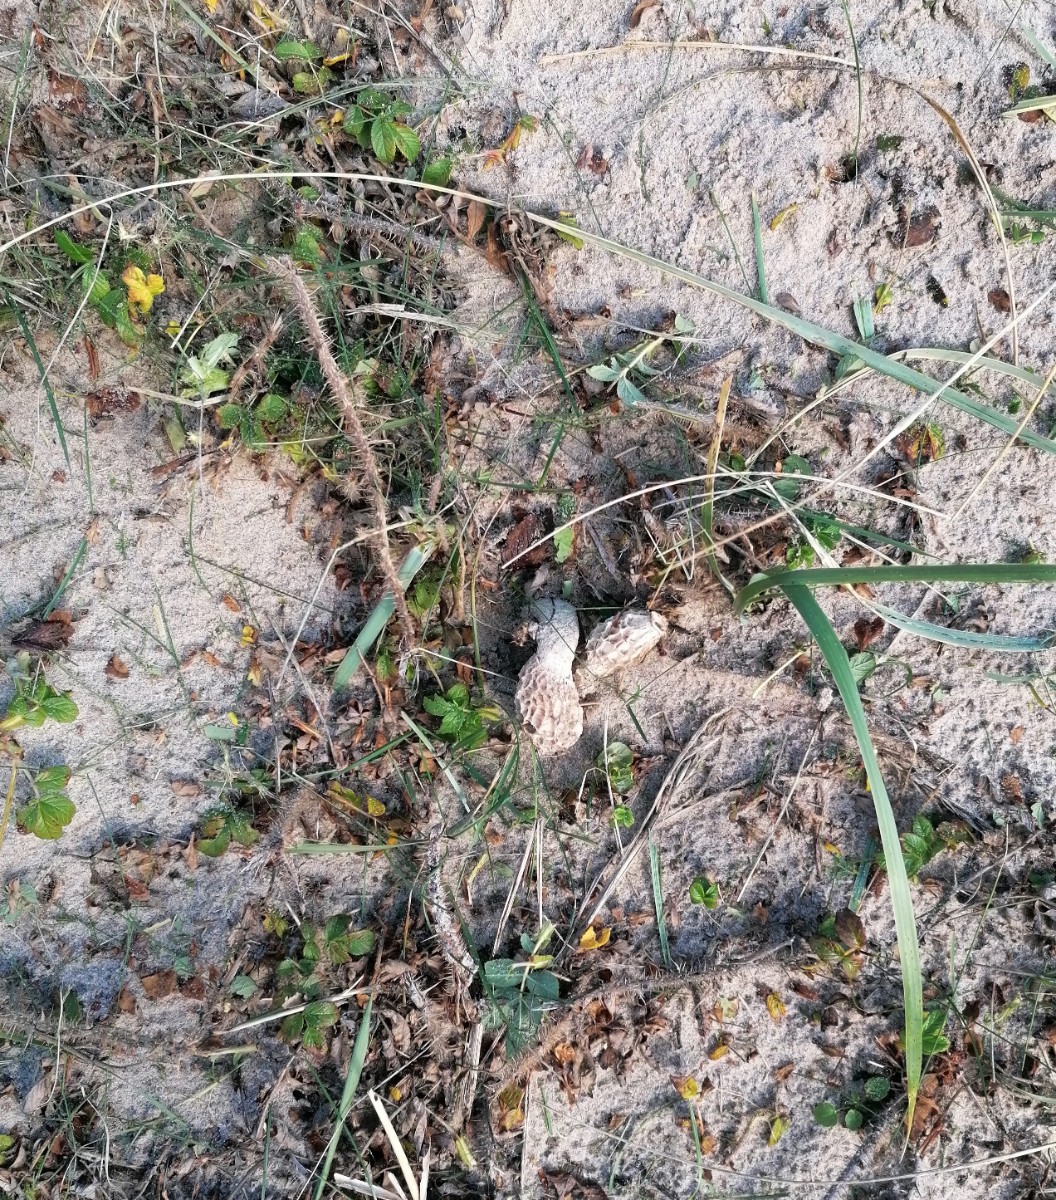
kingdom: Fungi
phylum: Basidiomycota
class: Agaricomycetes
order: Phallales
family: Phallaceae
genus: Phallus
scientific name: Phallus
